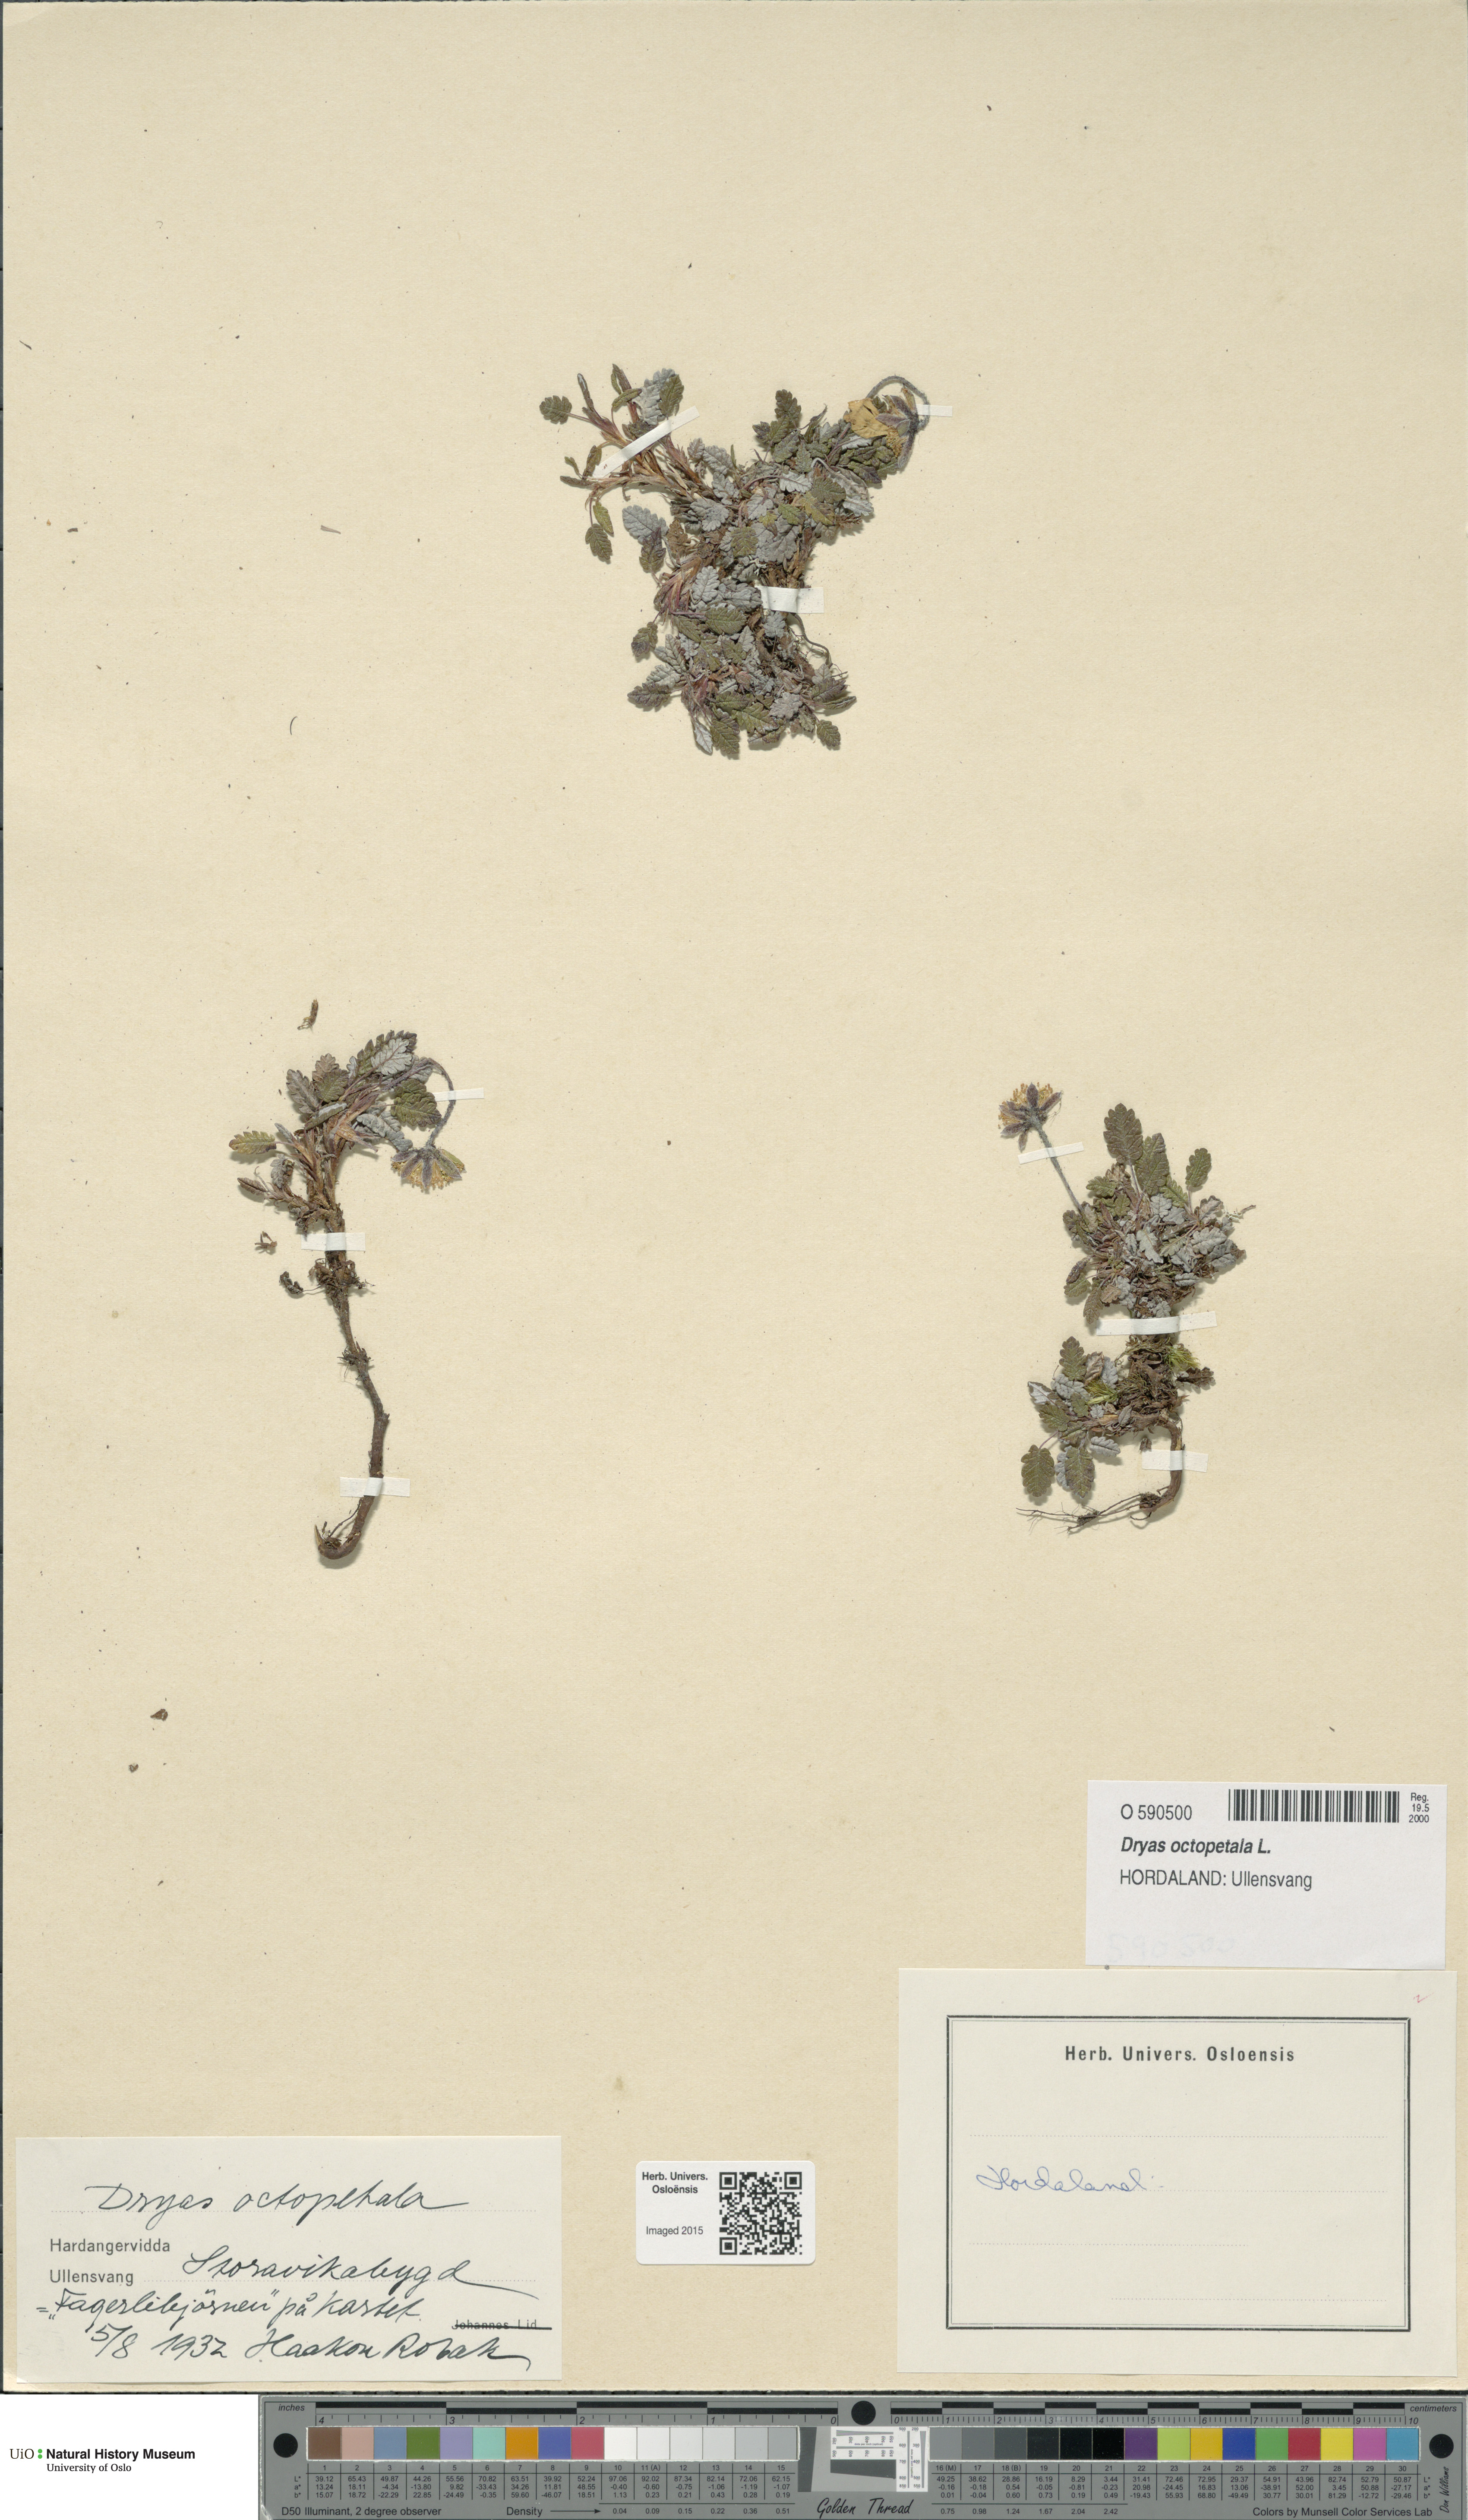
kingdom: Plantae
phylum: Tracheophyta
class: Magnoliopsida
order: Rosales
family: Rosaceae
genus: Dryas
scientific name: Dryas octopetala
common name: Eight-petal mountain-avens
